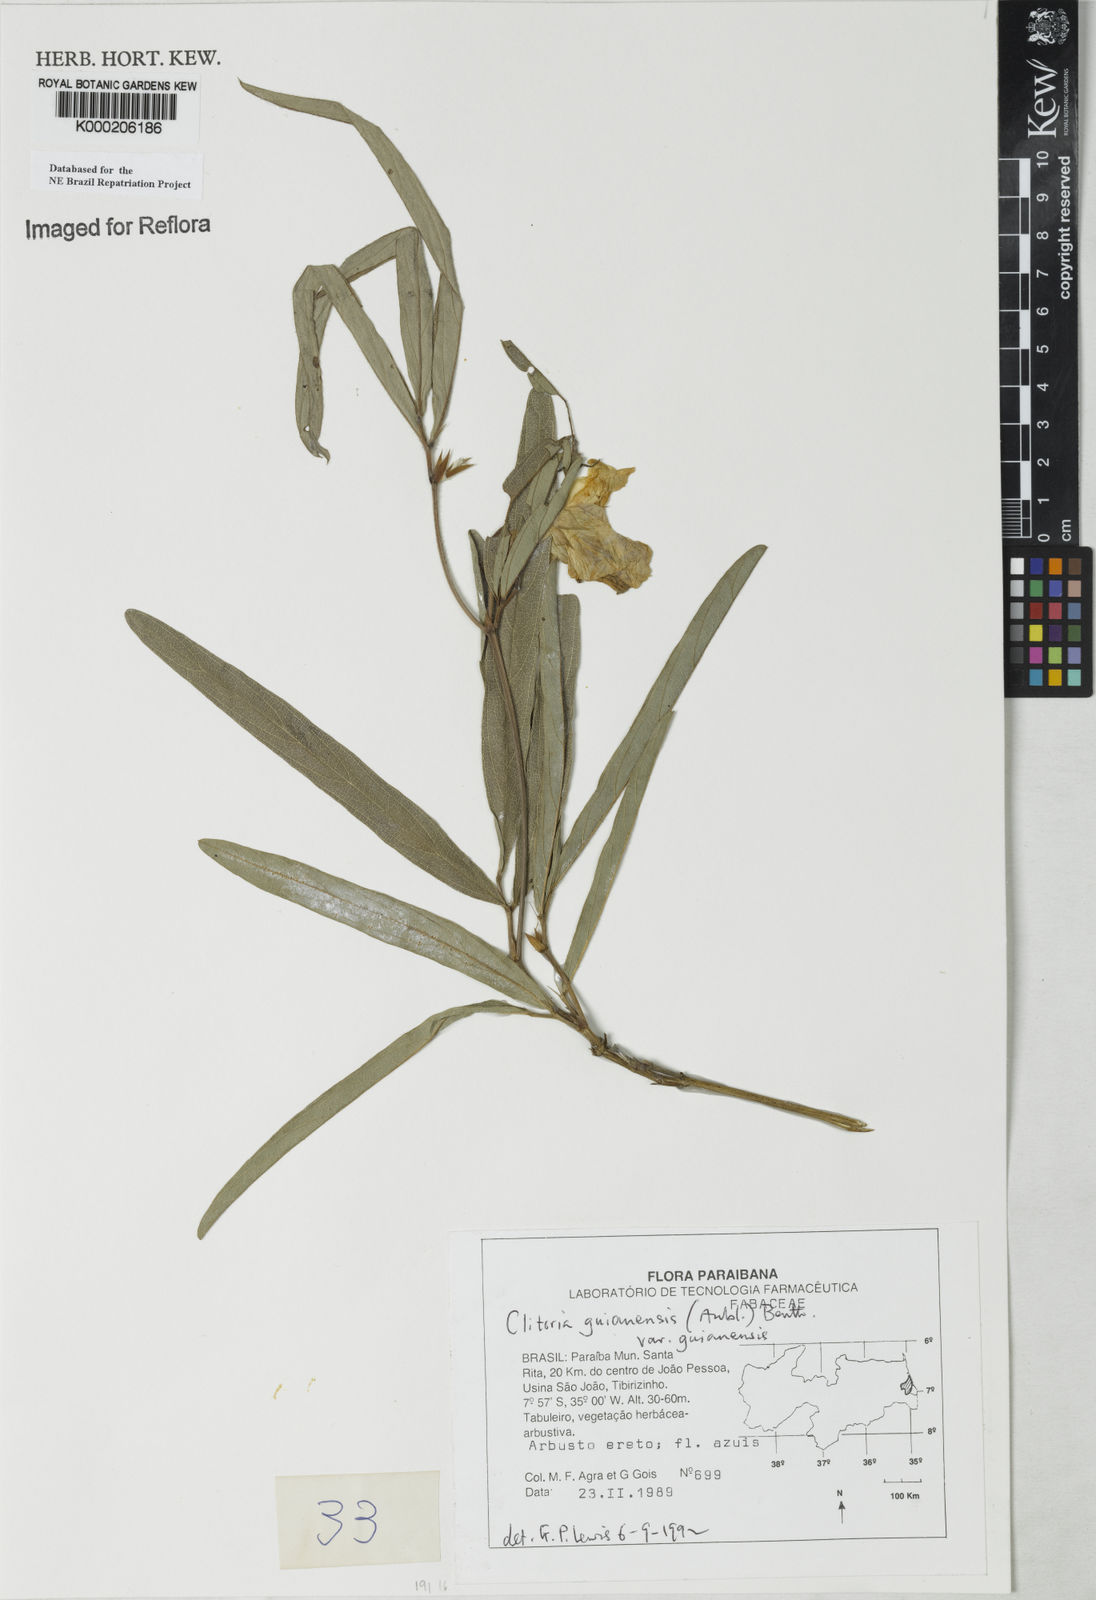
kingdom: Plantae
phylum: Tracheophyta
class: Magnoliopsida
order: Fabales
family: Fabaceae
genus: Clitoria
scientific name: Clitoria guianensis
